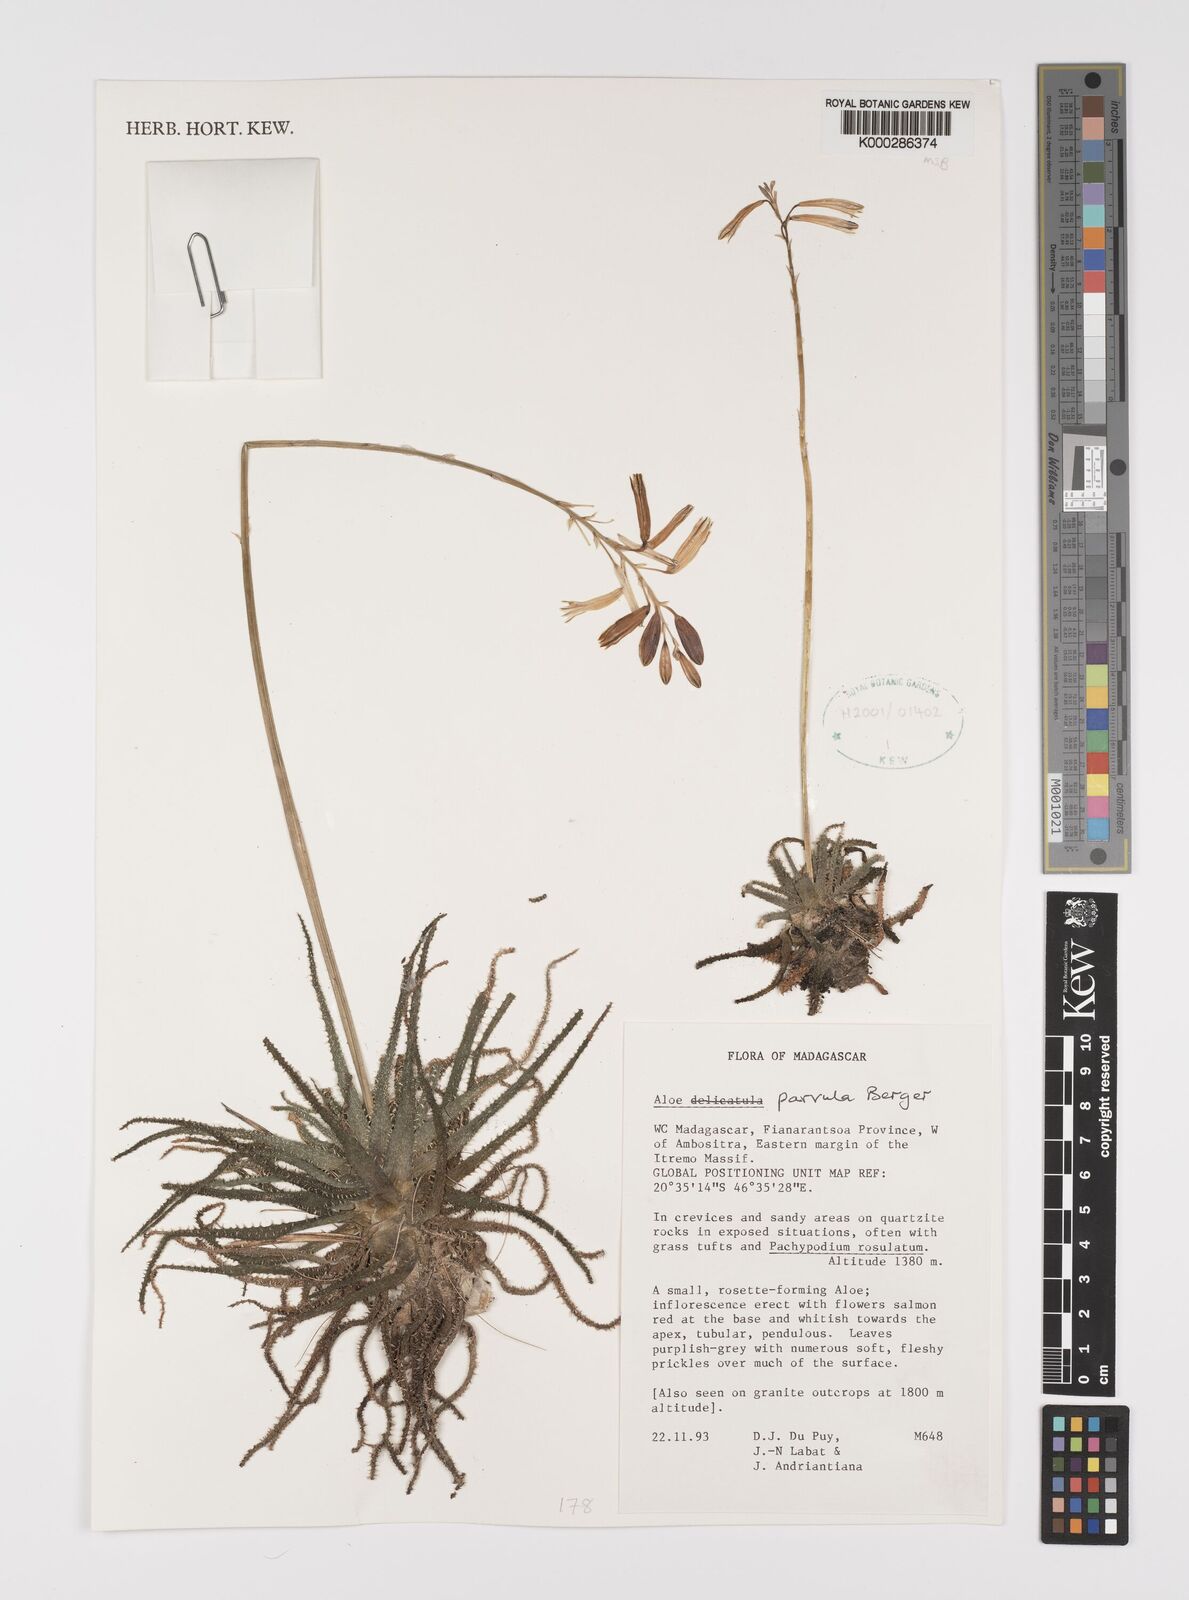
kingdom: Plantae
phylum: Tracheophyta
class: Liliopsida
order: Asparagales
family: Asphodelaceae
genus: Aloe
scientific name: Aloe parvula
